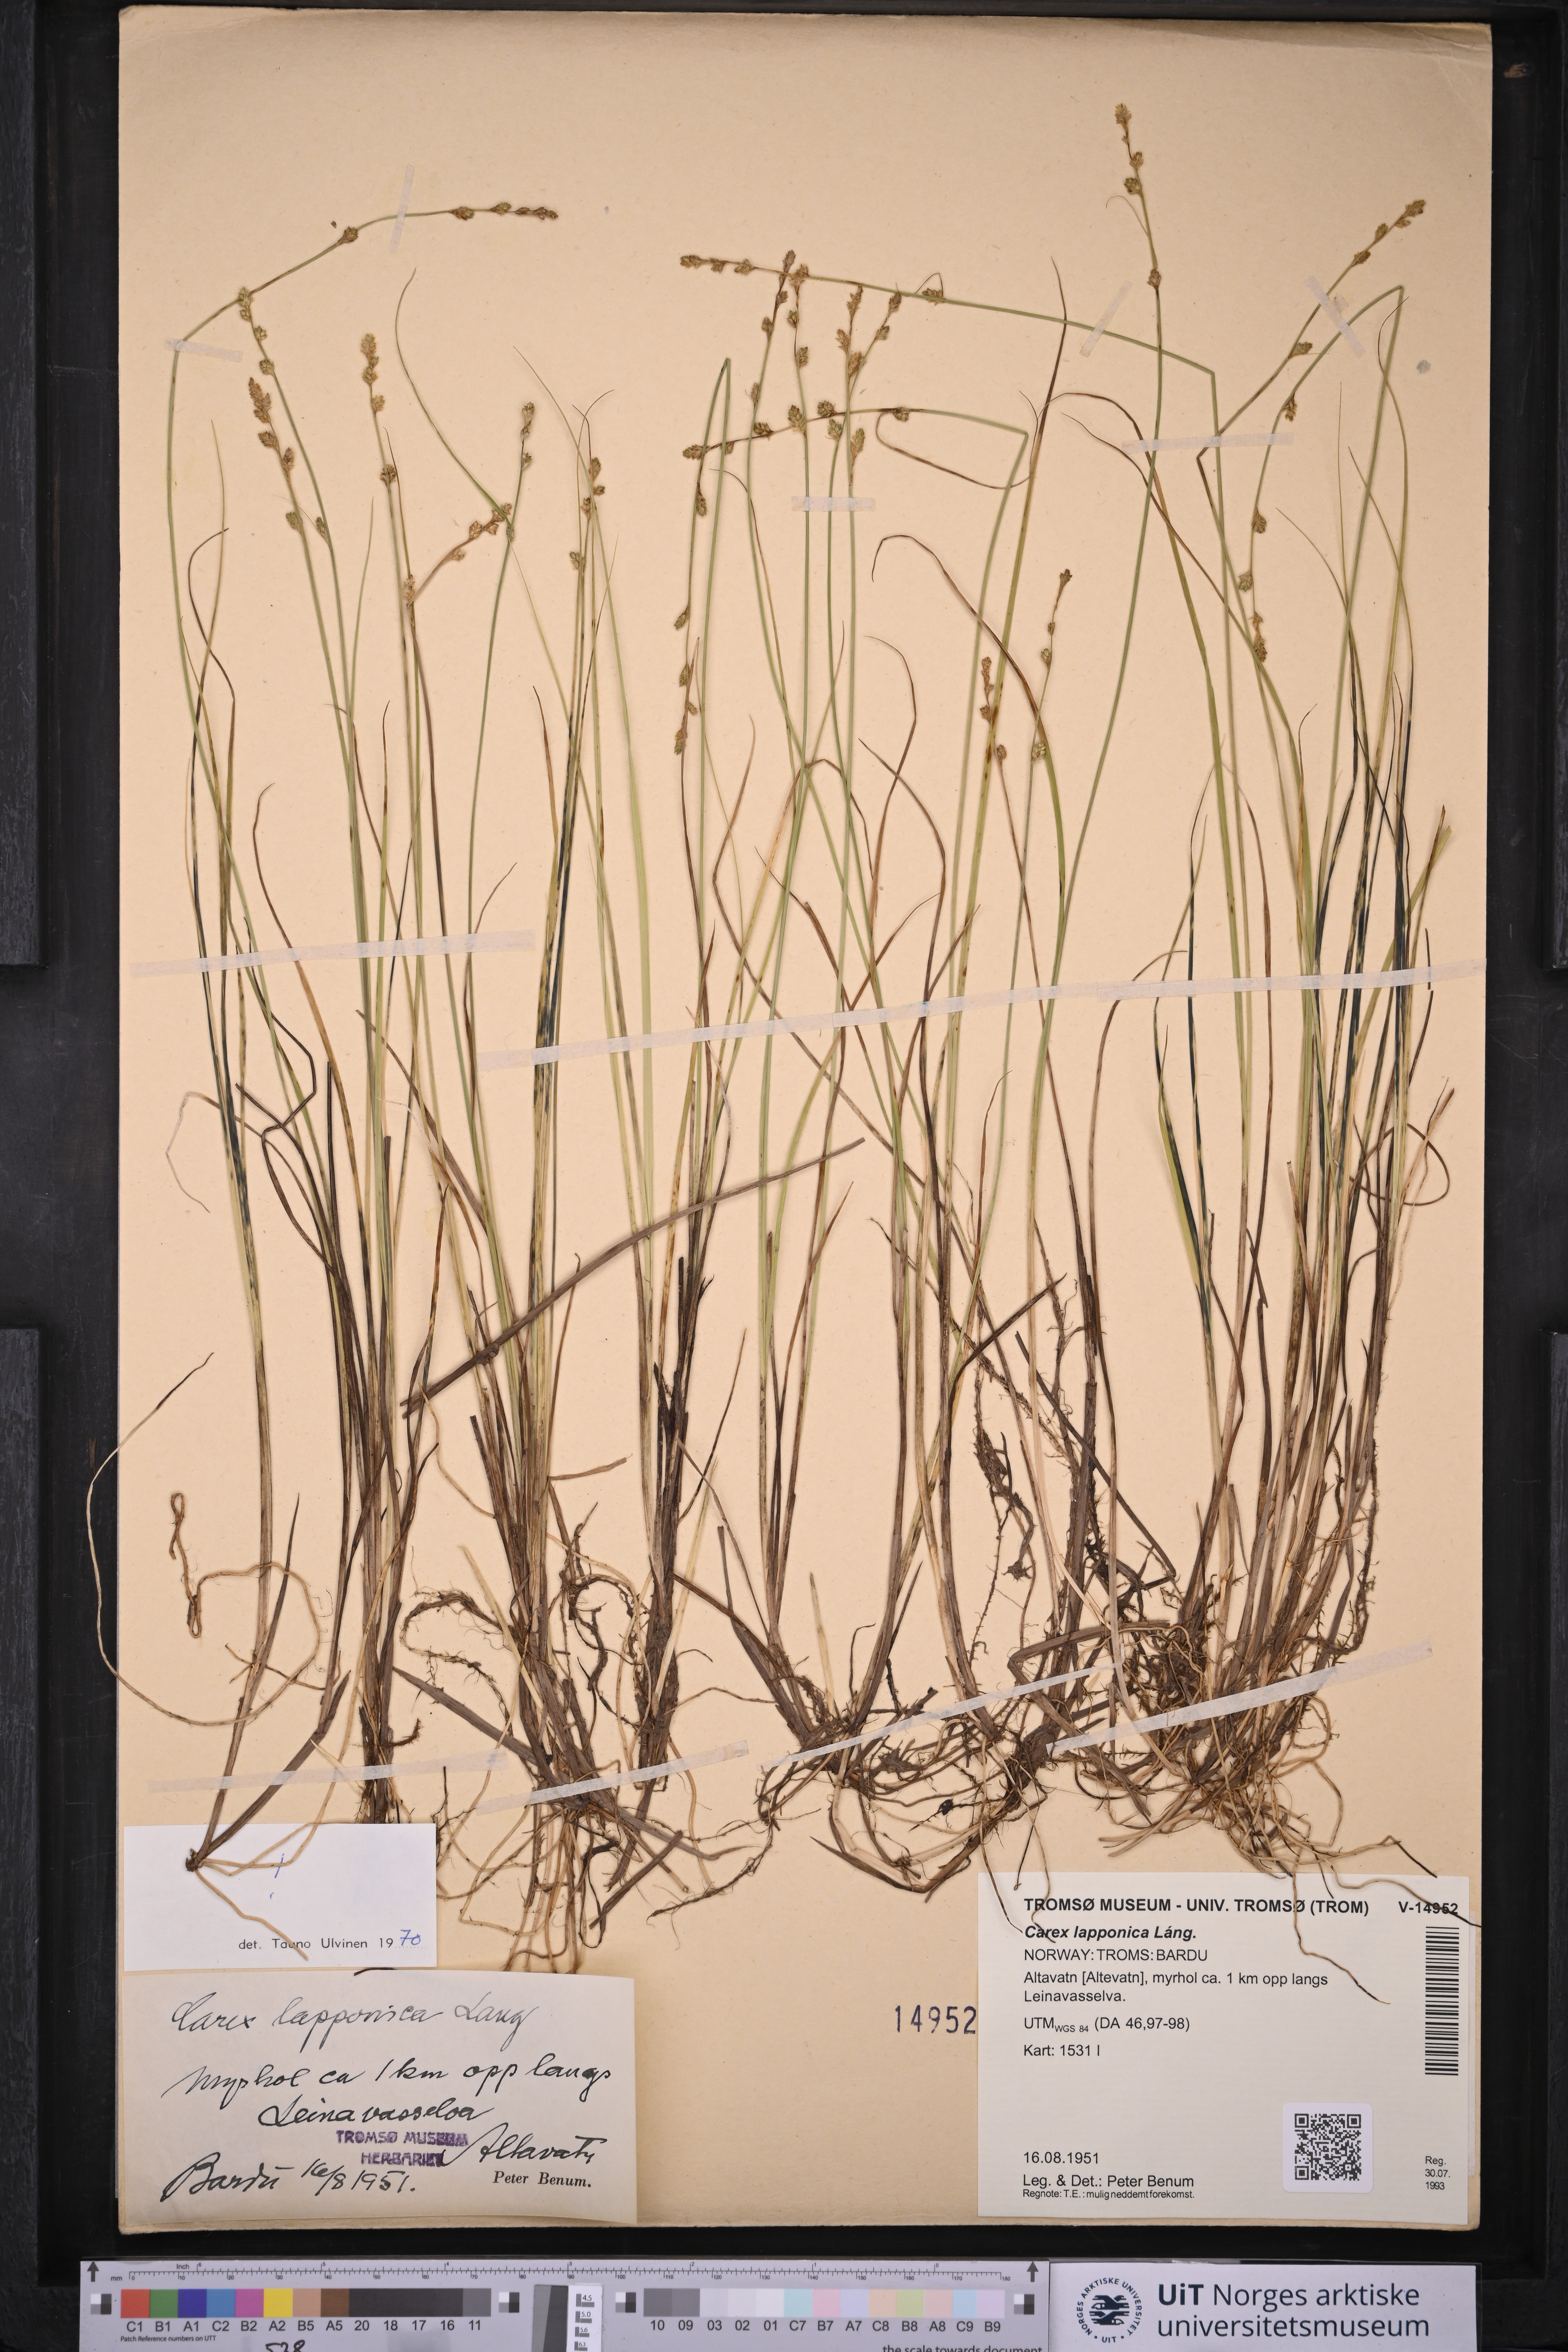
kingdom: Plantae
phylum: Tracheophyta
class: Liliopsida
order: Poales
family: Cyperaceae
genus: Carex
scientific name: Carex lapponica
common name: Lapland sedge
